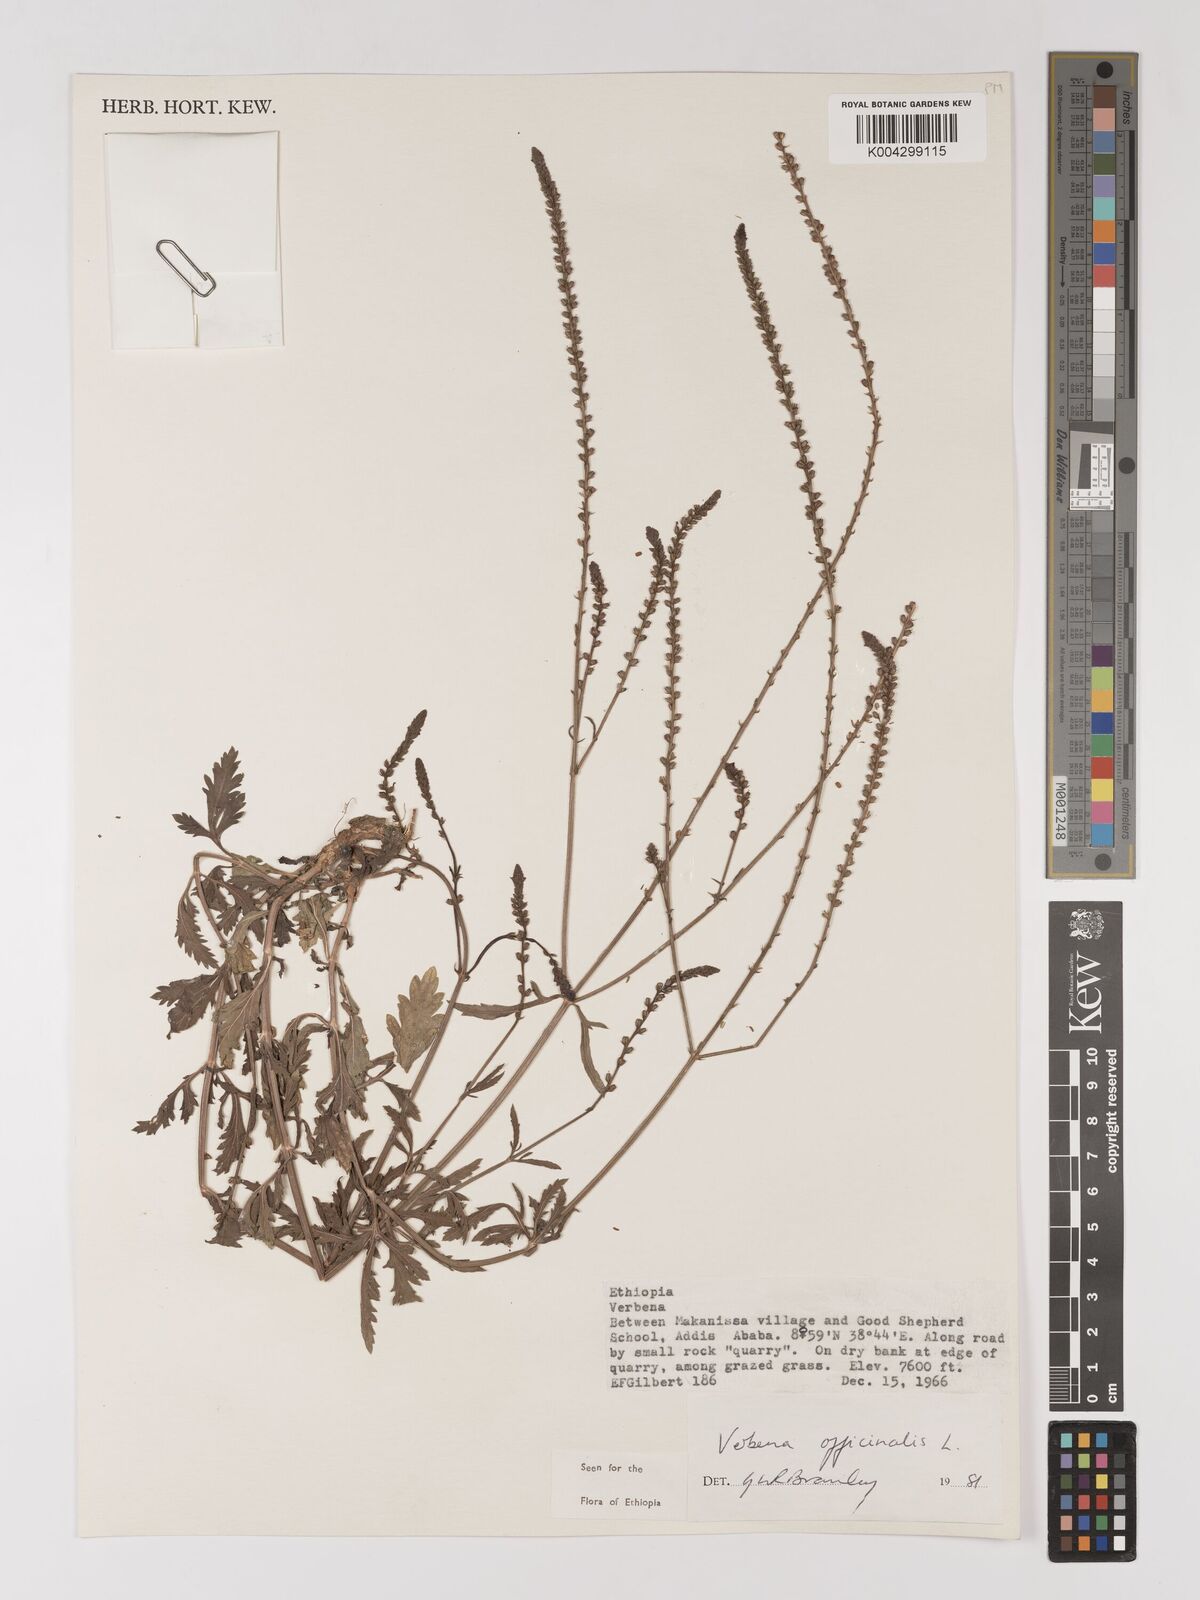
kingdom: Plantae
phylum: Tracheophyta
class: Magnoliopsida
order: Lamiales
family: Verbenaceae
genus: Verbena
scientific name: Verbena officinalis
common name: Vervain
